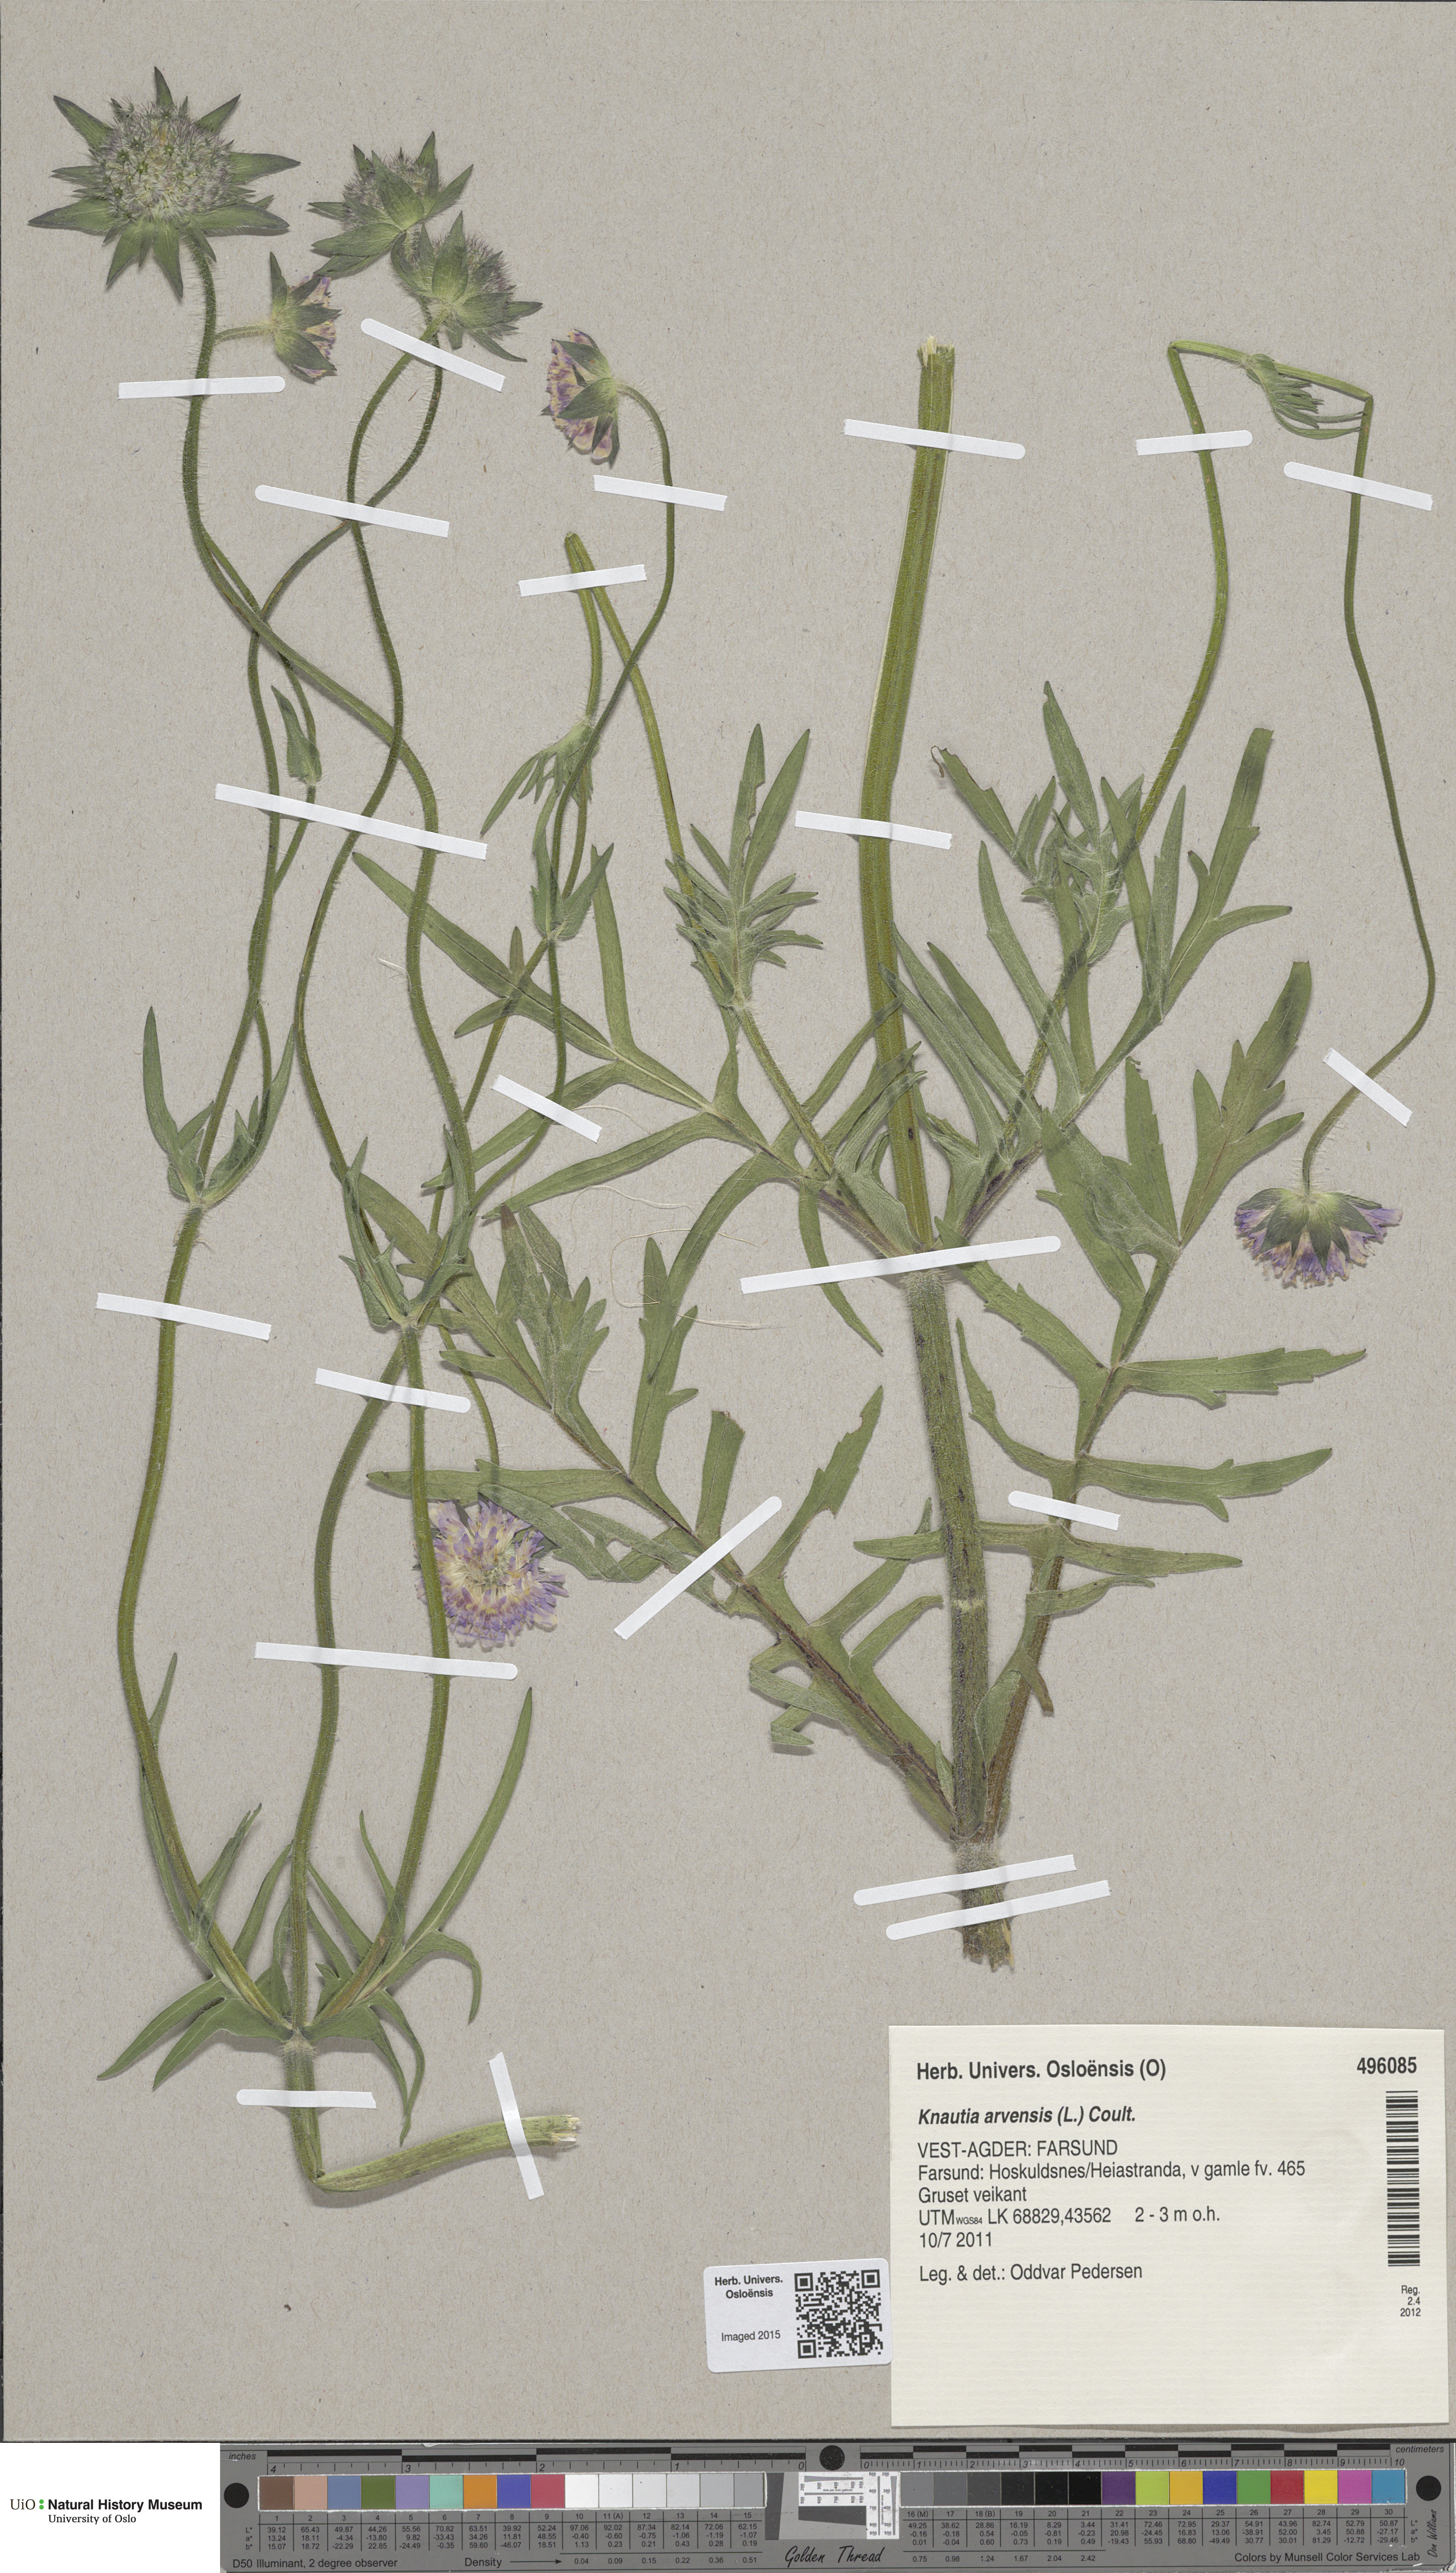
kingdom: Plantae
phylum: Tracheophyta
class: Magnoliopsida
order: Dipsacales
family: Caprifoliaceae
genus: Knautia
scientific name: Knautia arvensis
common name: Field scabiosa
